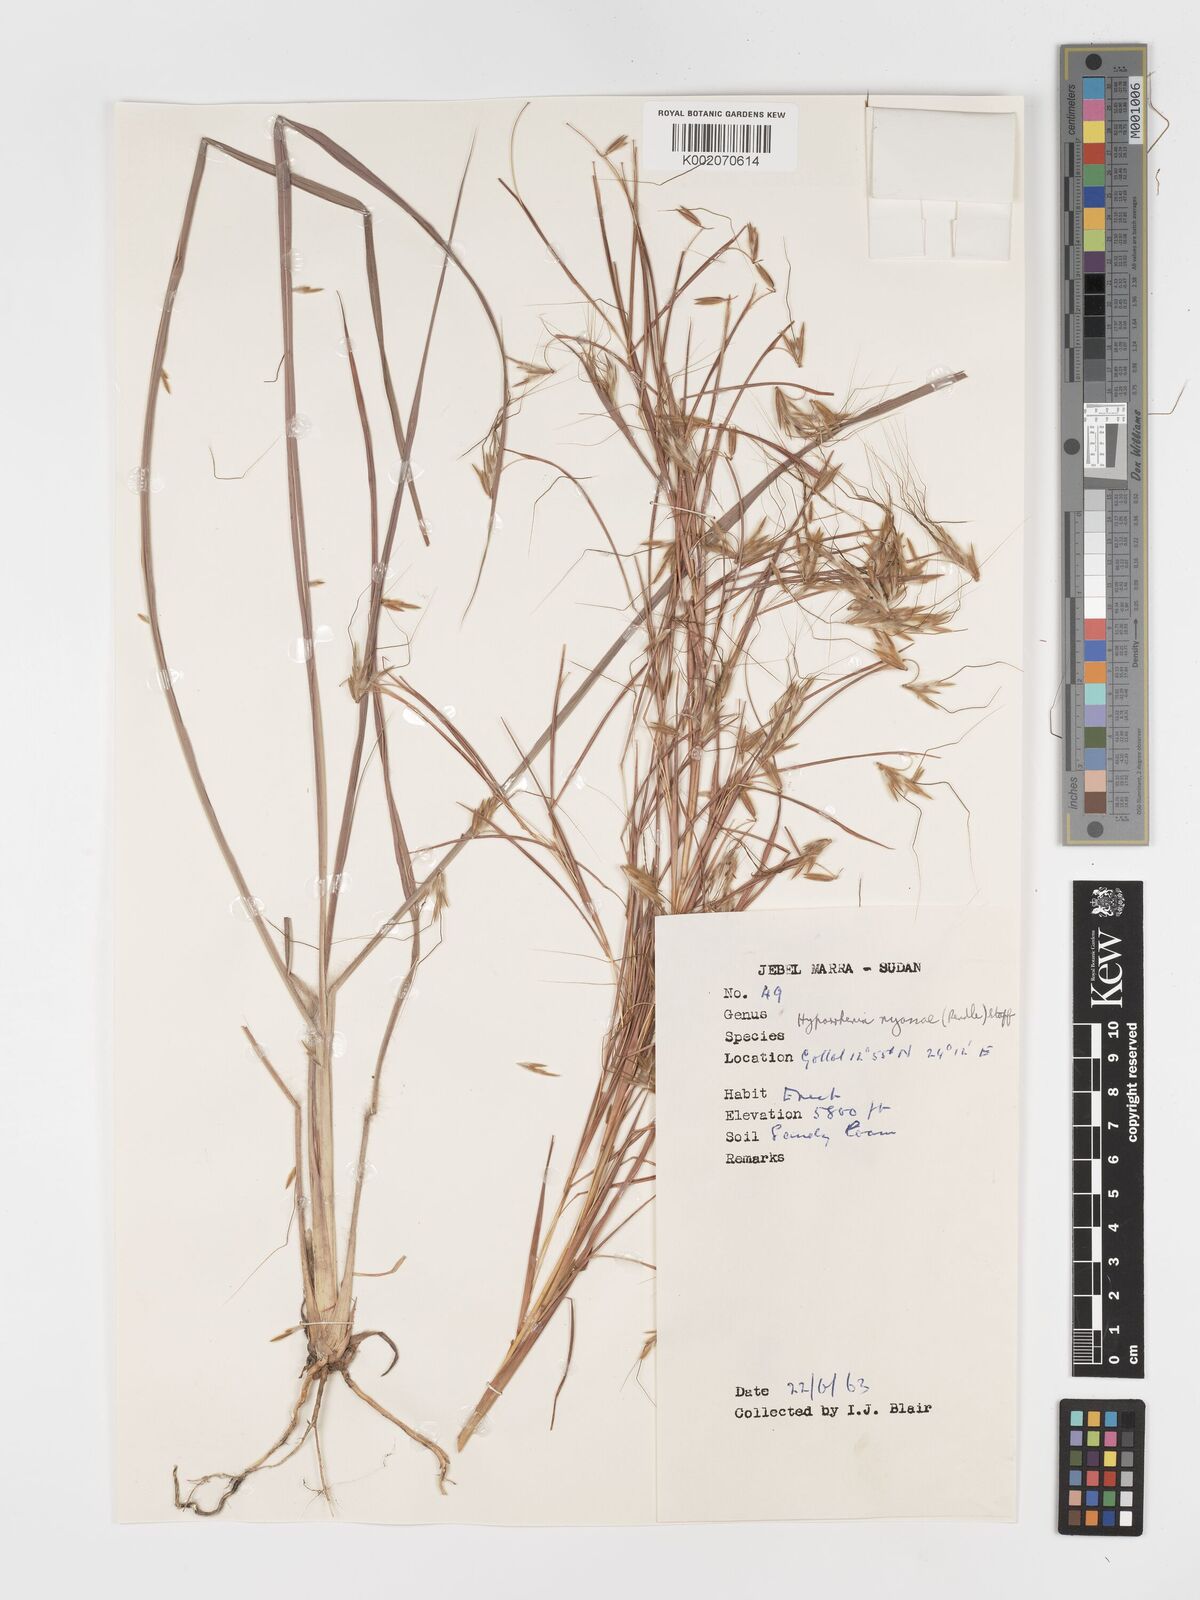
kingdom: Plantae
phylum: Tracheophyta
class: Liliopsida
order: Poales
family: Poaceae
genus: Hyparrhenia
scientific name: Hyparrhenia nyassae
